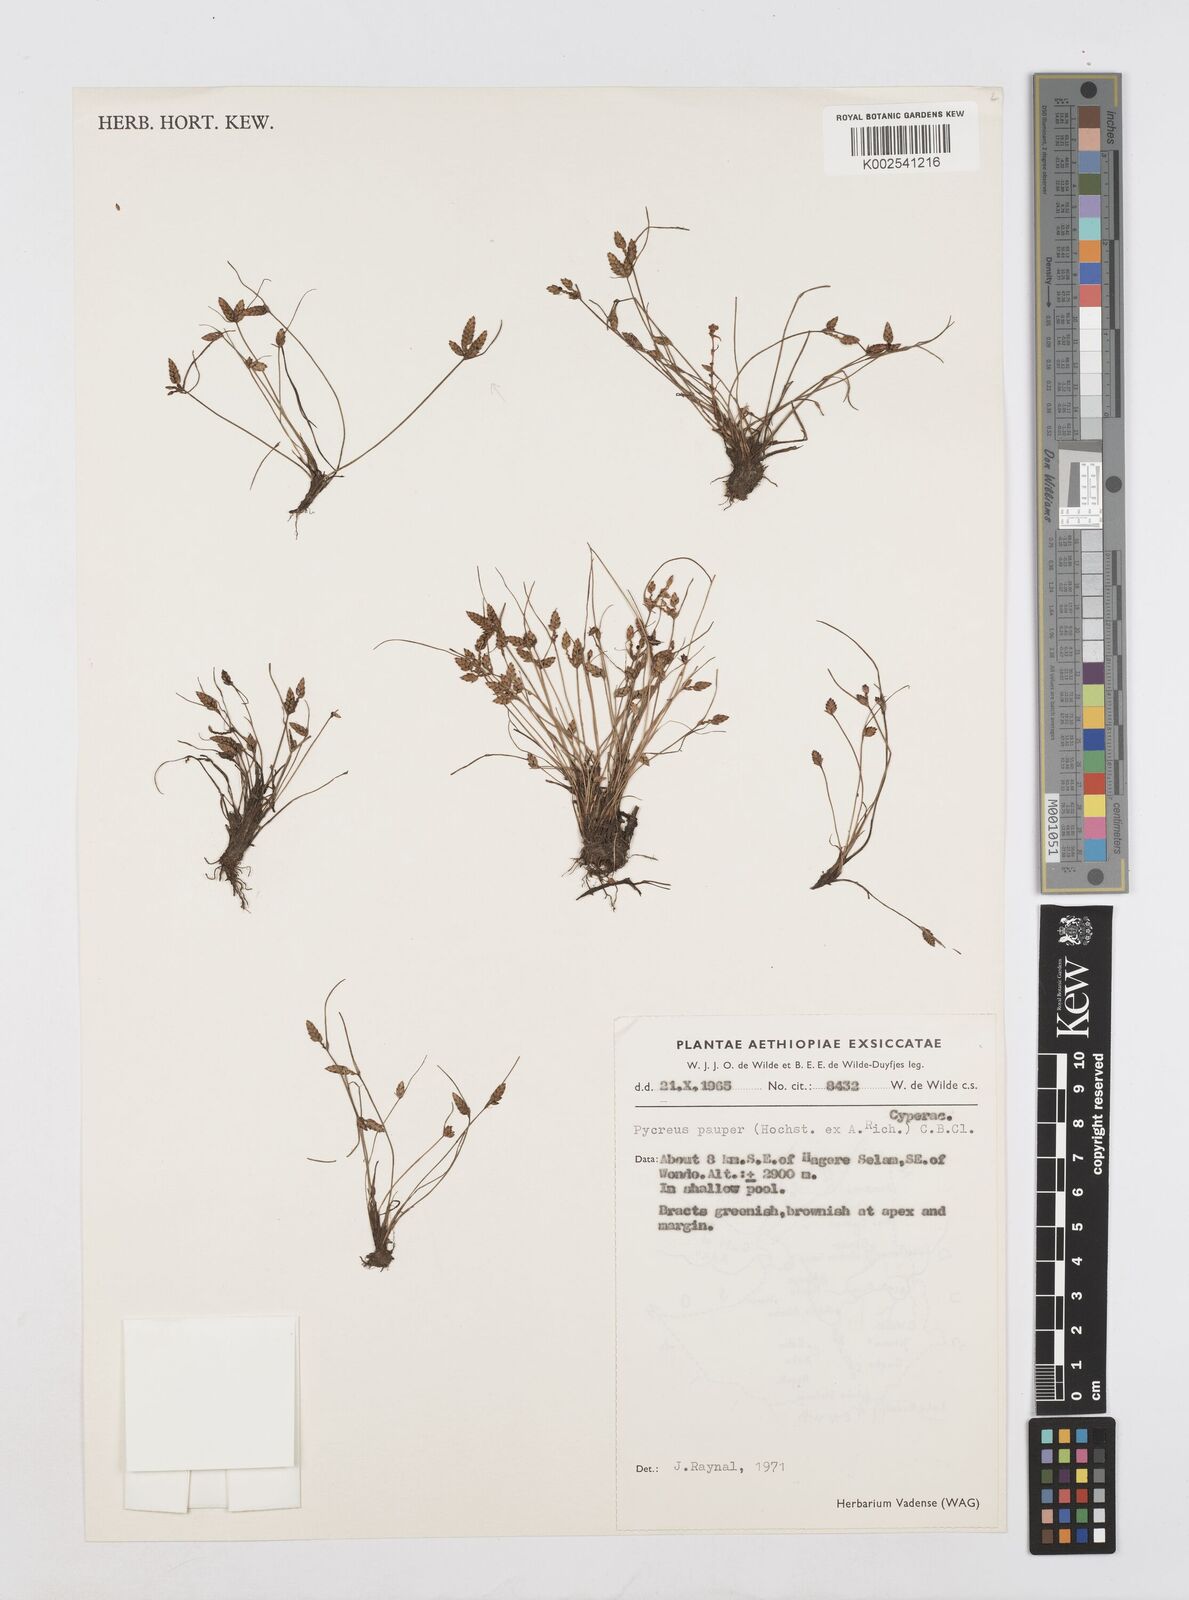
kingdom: Plantae
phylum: Tracheophyta
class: Liliopsida
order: Poales
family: Cyperaceae
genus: Cyperus
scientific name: Cyperus pauper
